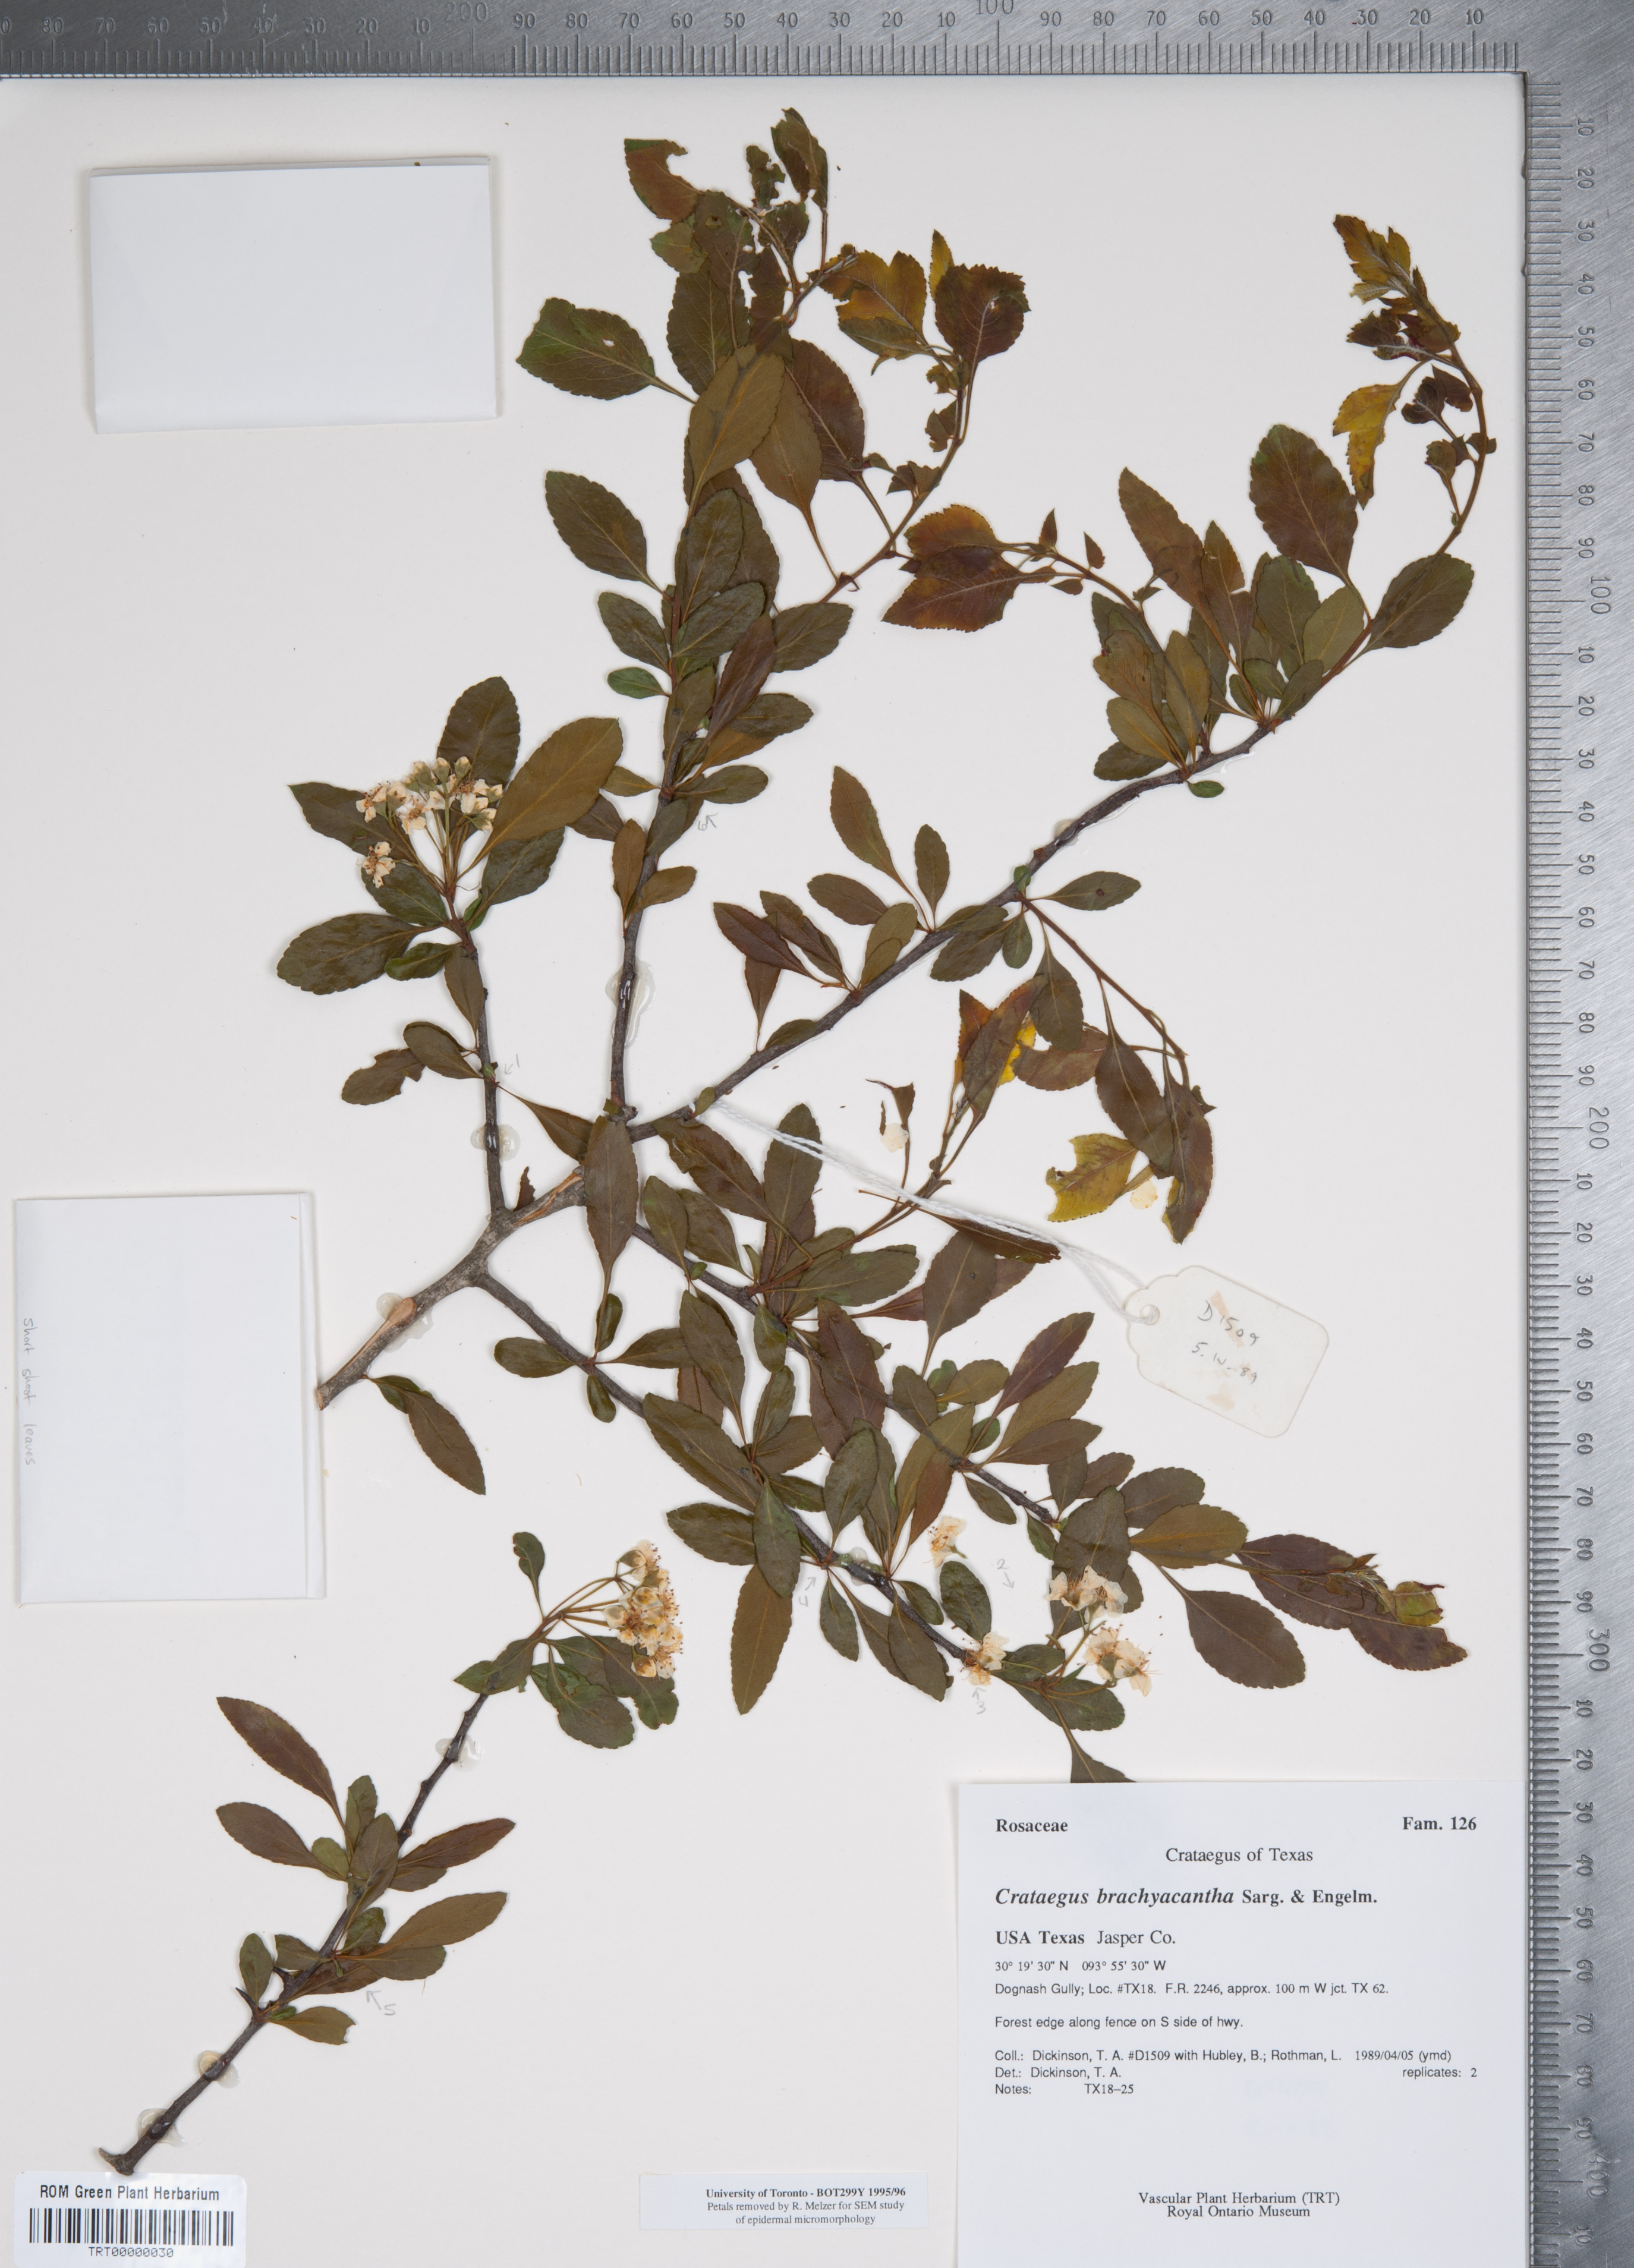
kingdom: Plantae
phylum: Tracheophyta
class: Magnoliopsida
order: Rosales
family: Rosaceae
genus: Crataegus
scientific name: Crataegus brachyacantha
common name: Blueberry-hawthorn
